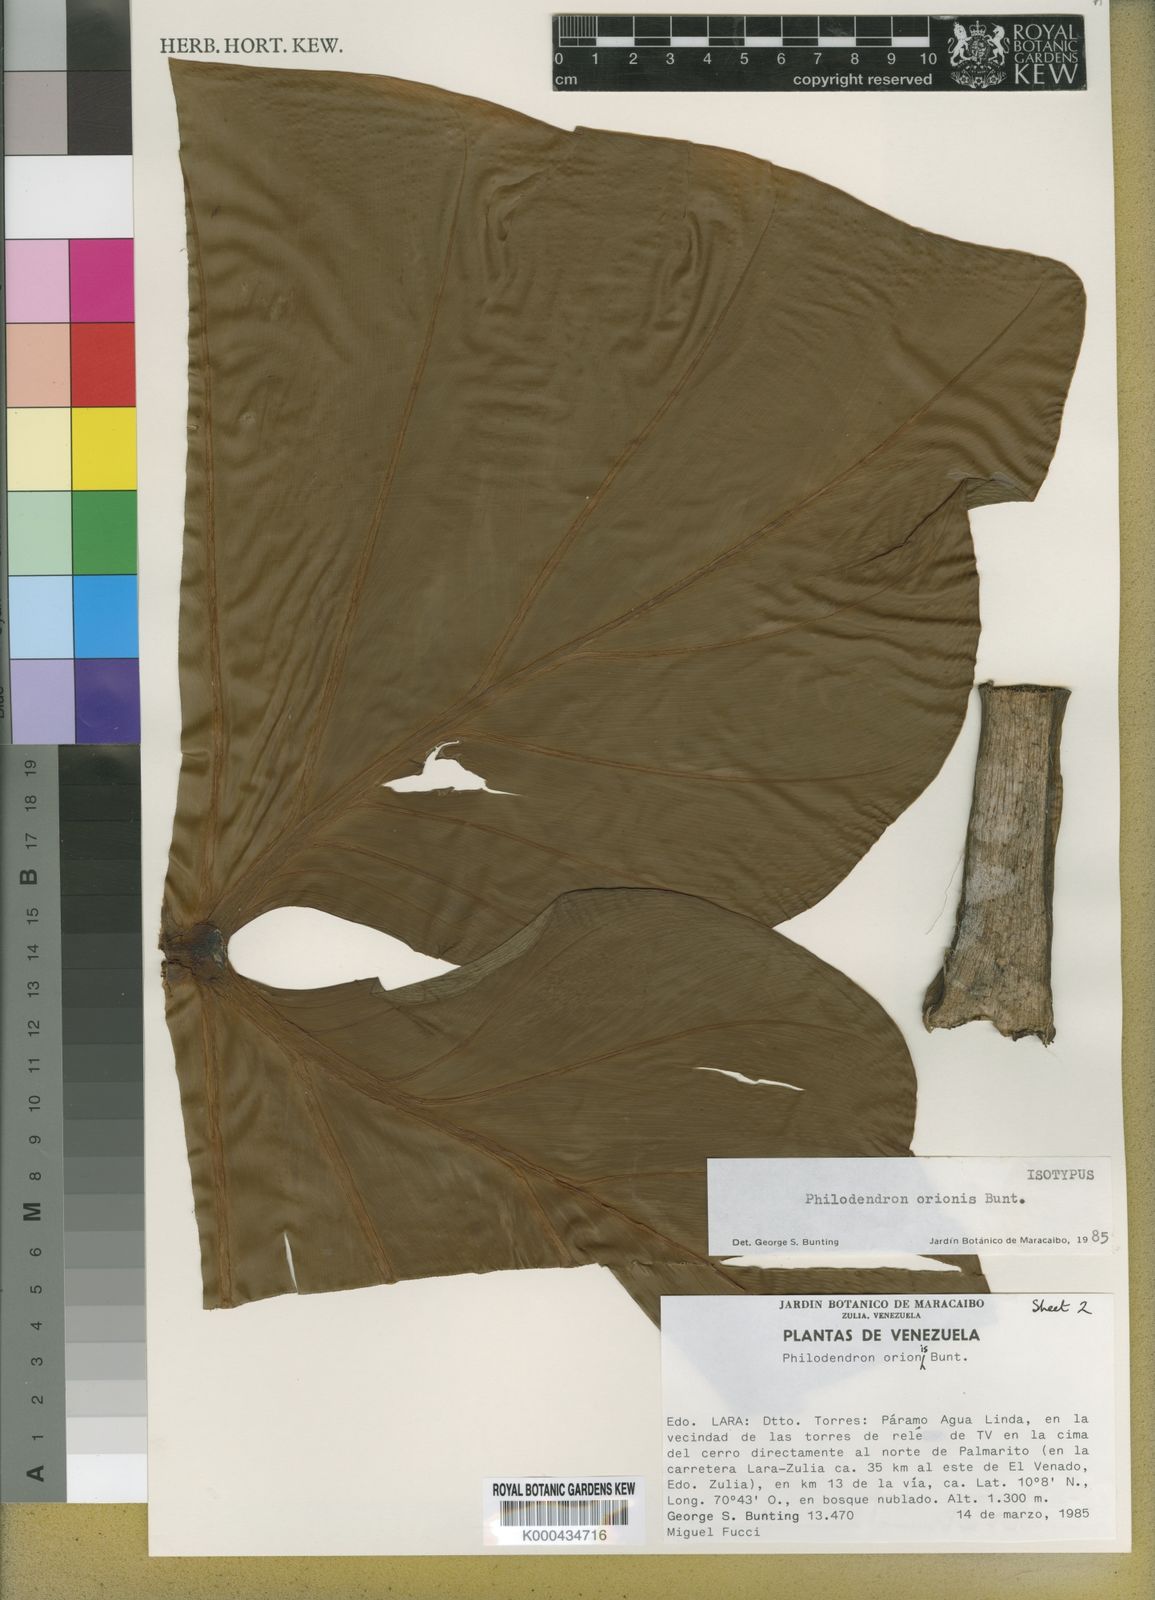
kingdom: Plantae
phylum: Tracheophyta
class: Liliopsida
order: Alismatales
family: Araceae
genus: Philodendron
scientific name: Philodendron orionis
